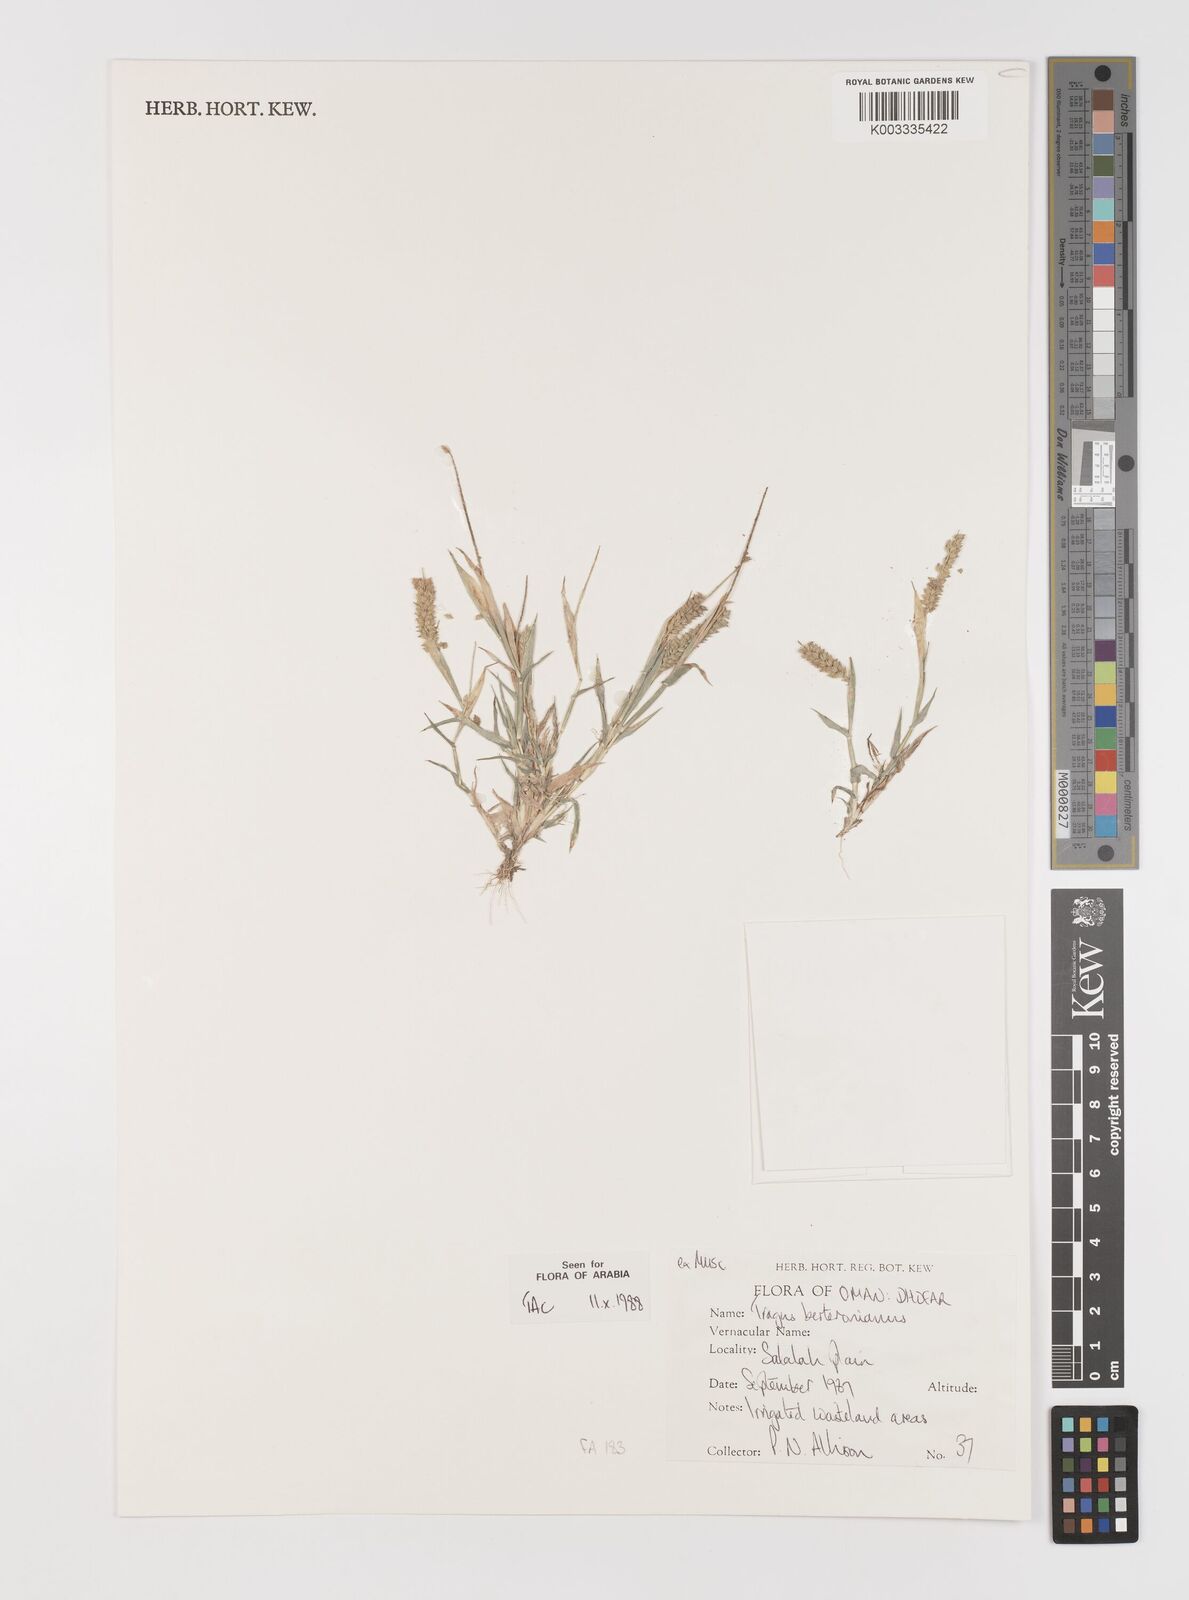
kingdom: Plantae
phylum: Tracheophyta
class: Liliopsida
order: Poales
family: Poaceae
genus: Tragus
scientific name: Tragus berteronianus
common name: African bur-grass
